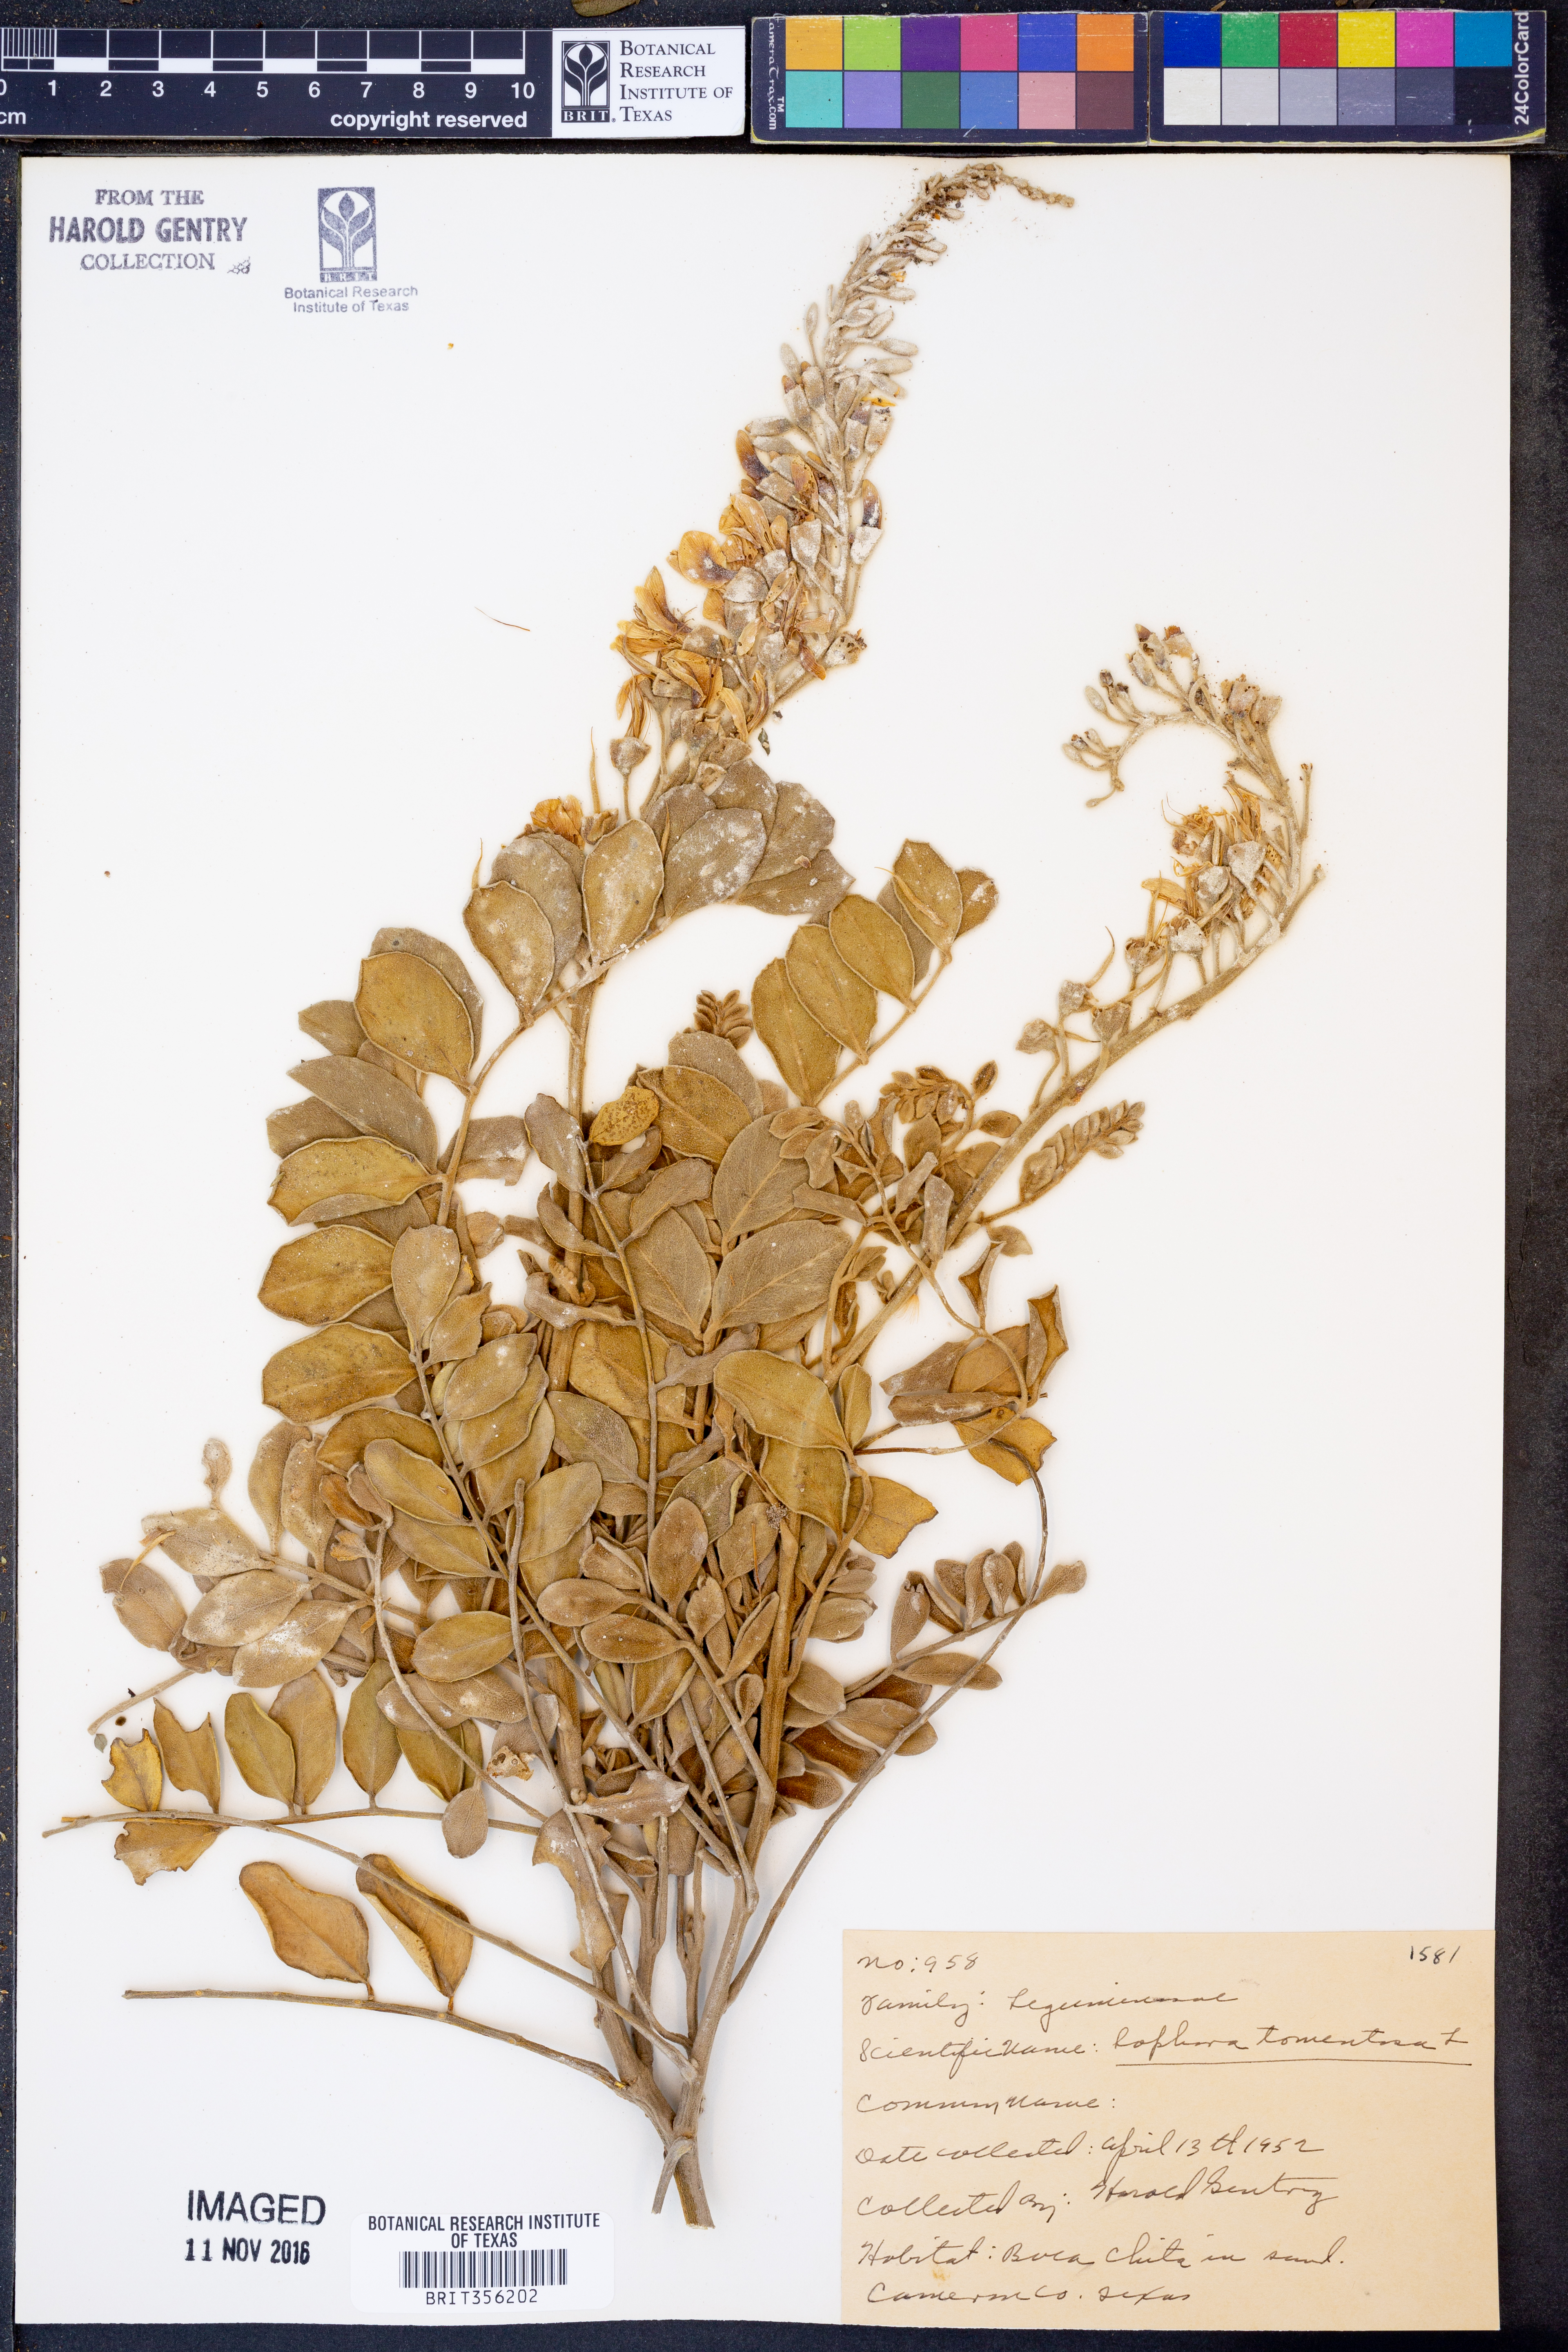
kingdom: Plantae
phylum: Tracheophyta
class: Magnoliopsida
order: Fabales
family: Fabaceae
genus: Sophora
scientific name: Sophora tomentosa
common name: Yellow necklacepod
